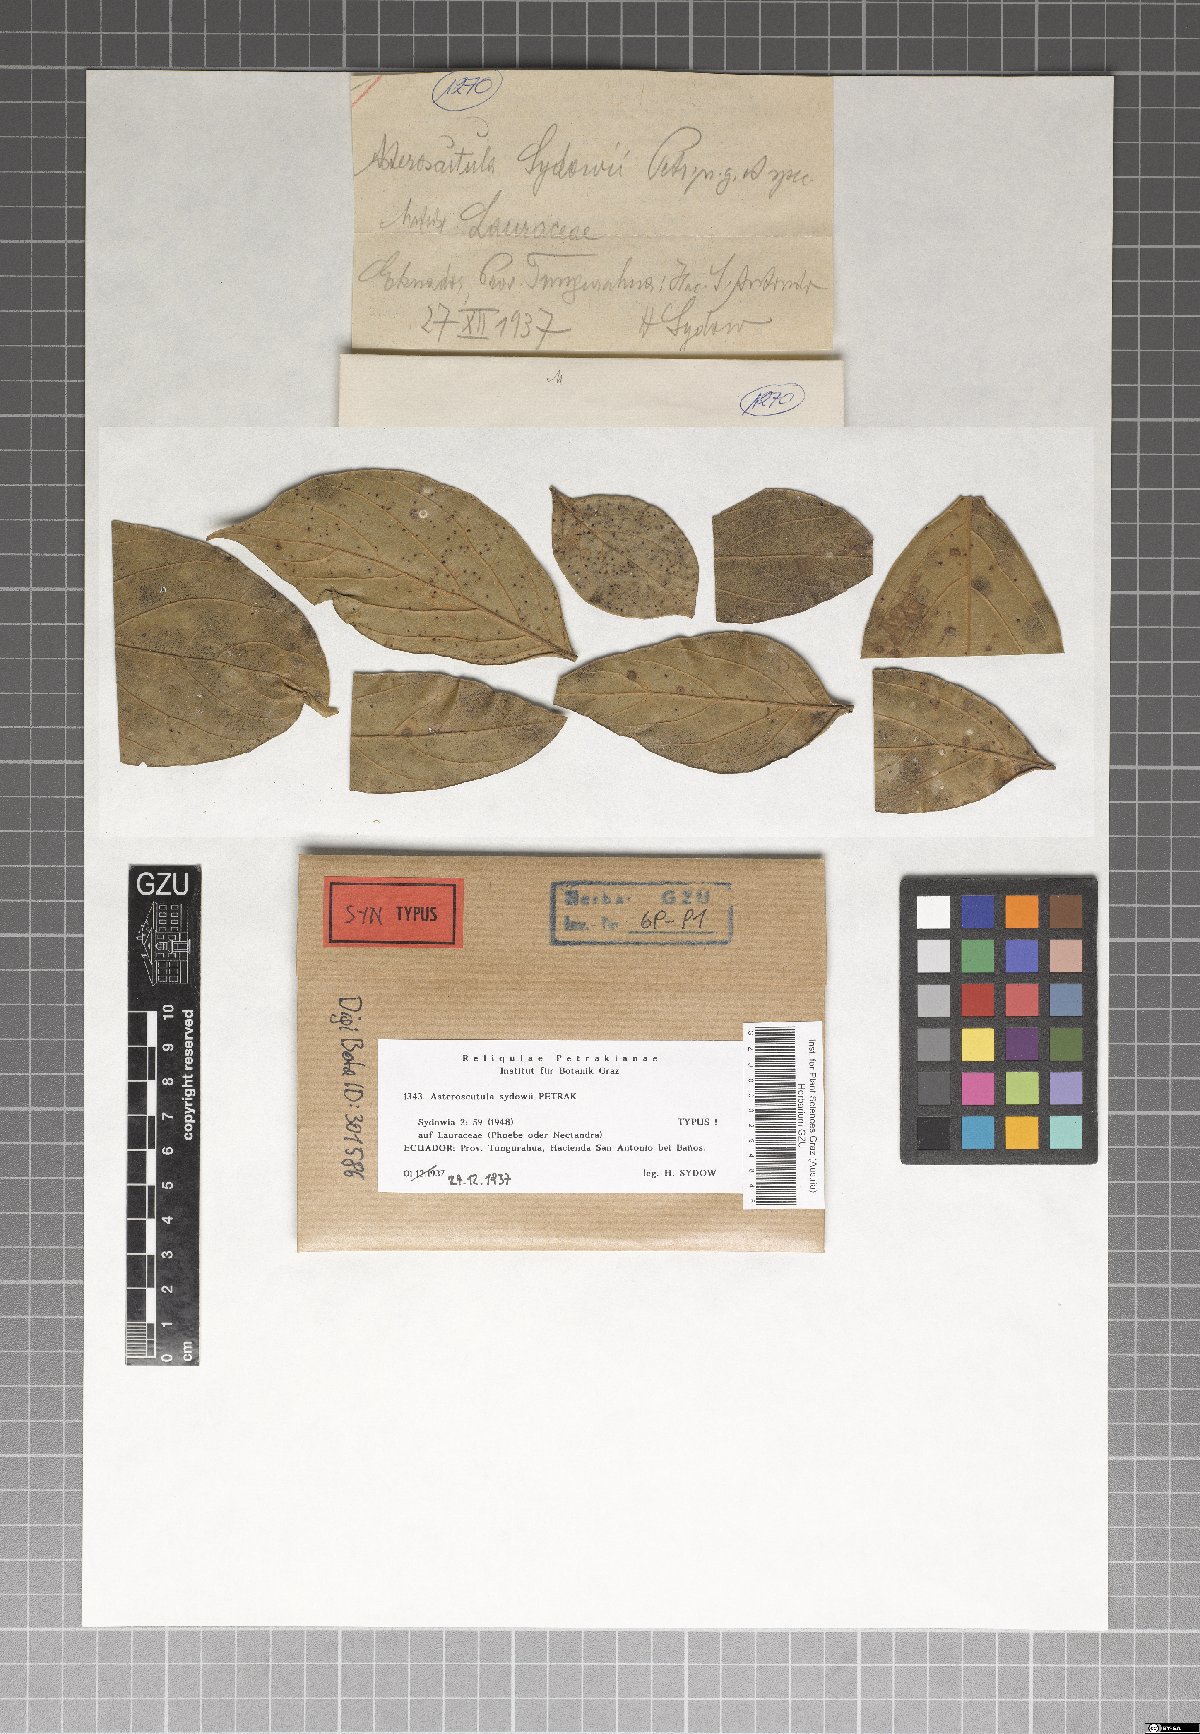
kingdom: Fungi
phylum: Ascomycota
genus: Asteroscutula
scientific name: Asteroscutula sydowii
